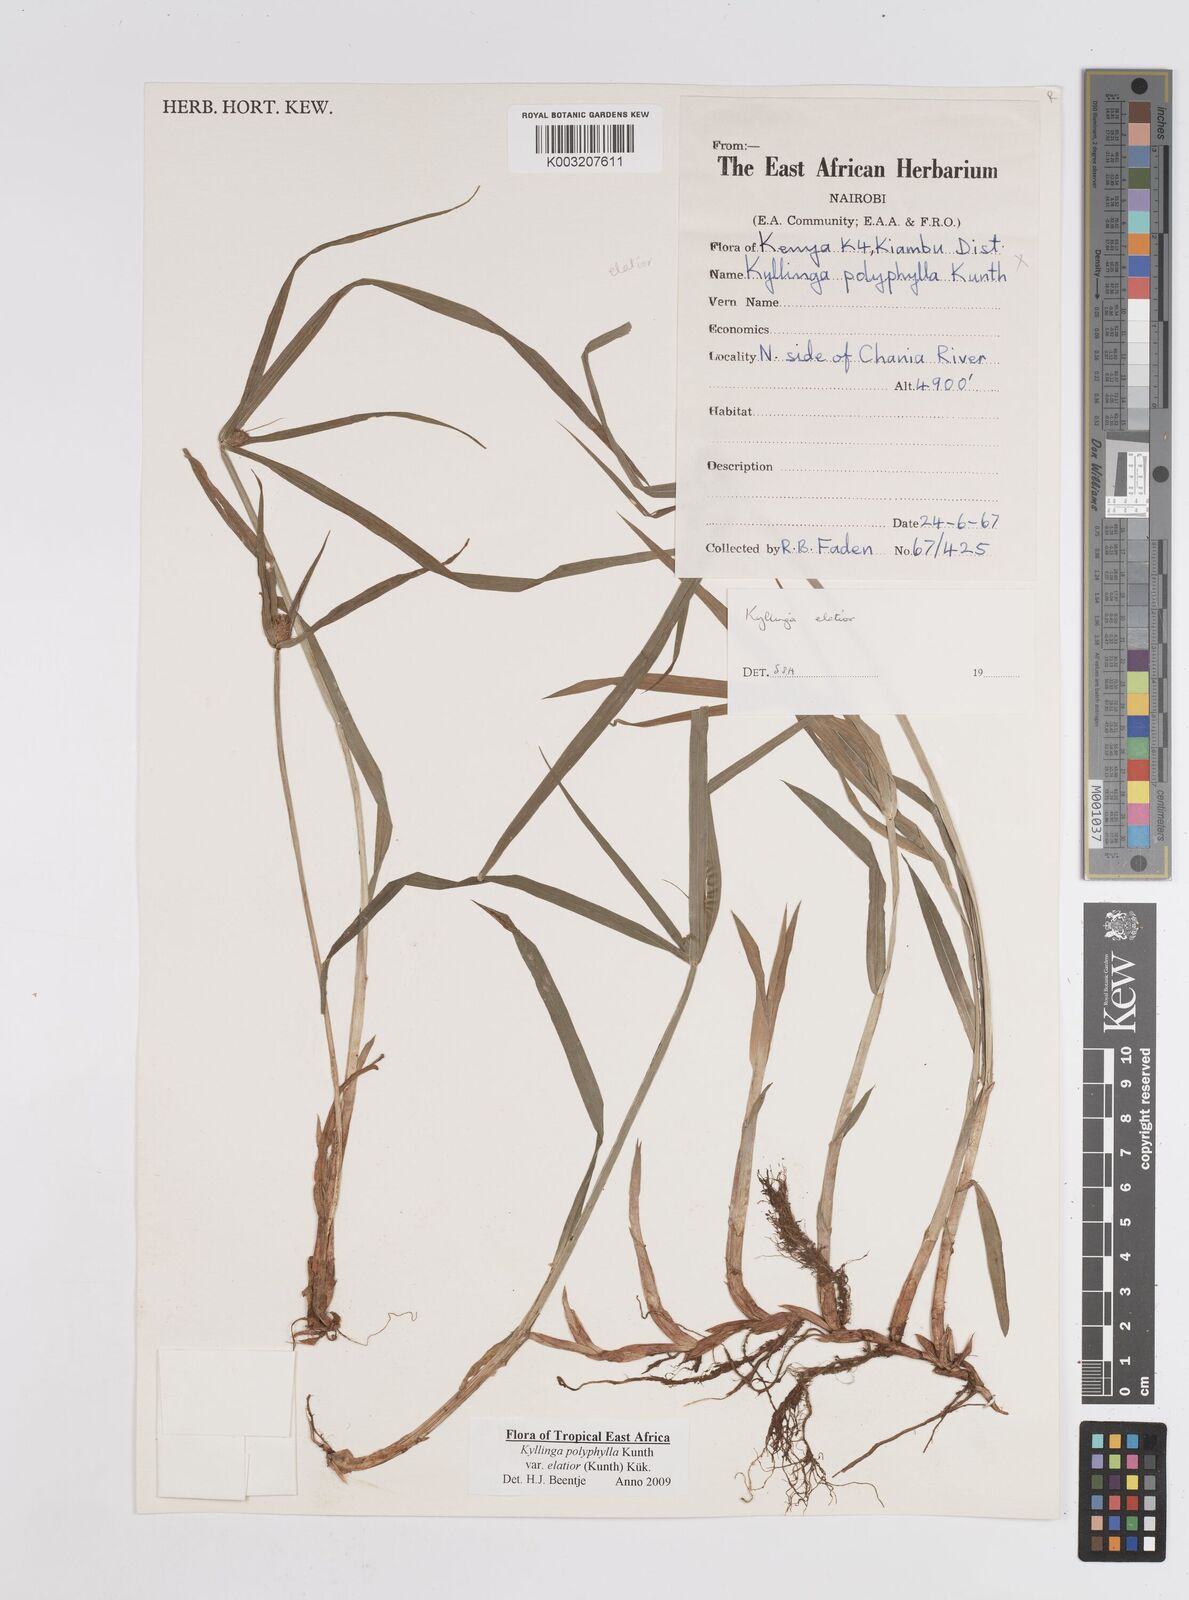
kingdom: Plantae
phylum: Tracheophyta
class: Liliopsida
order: Poales
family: Cyperaceae
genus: Cyperus
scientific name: Cyperus
